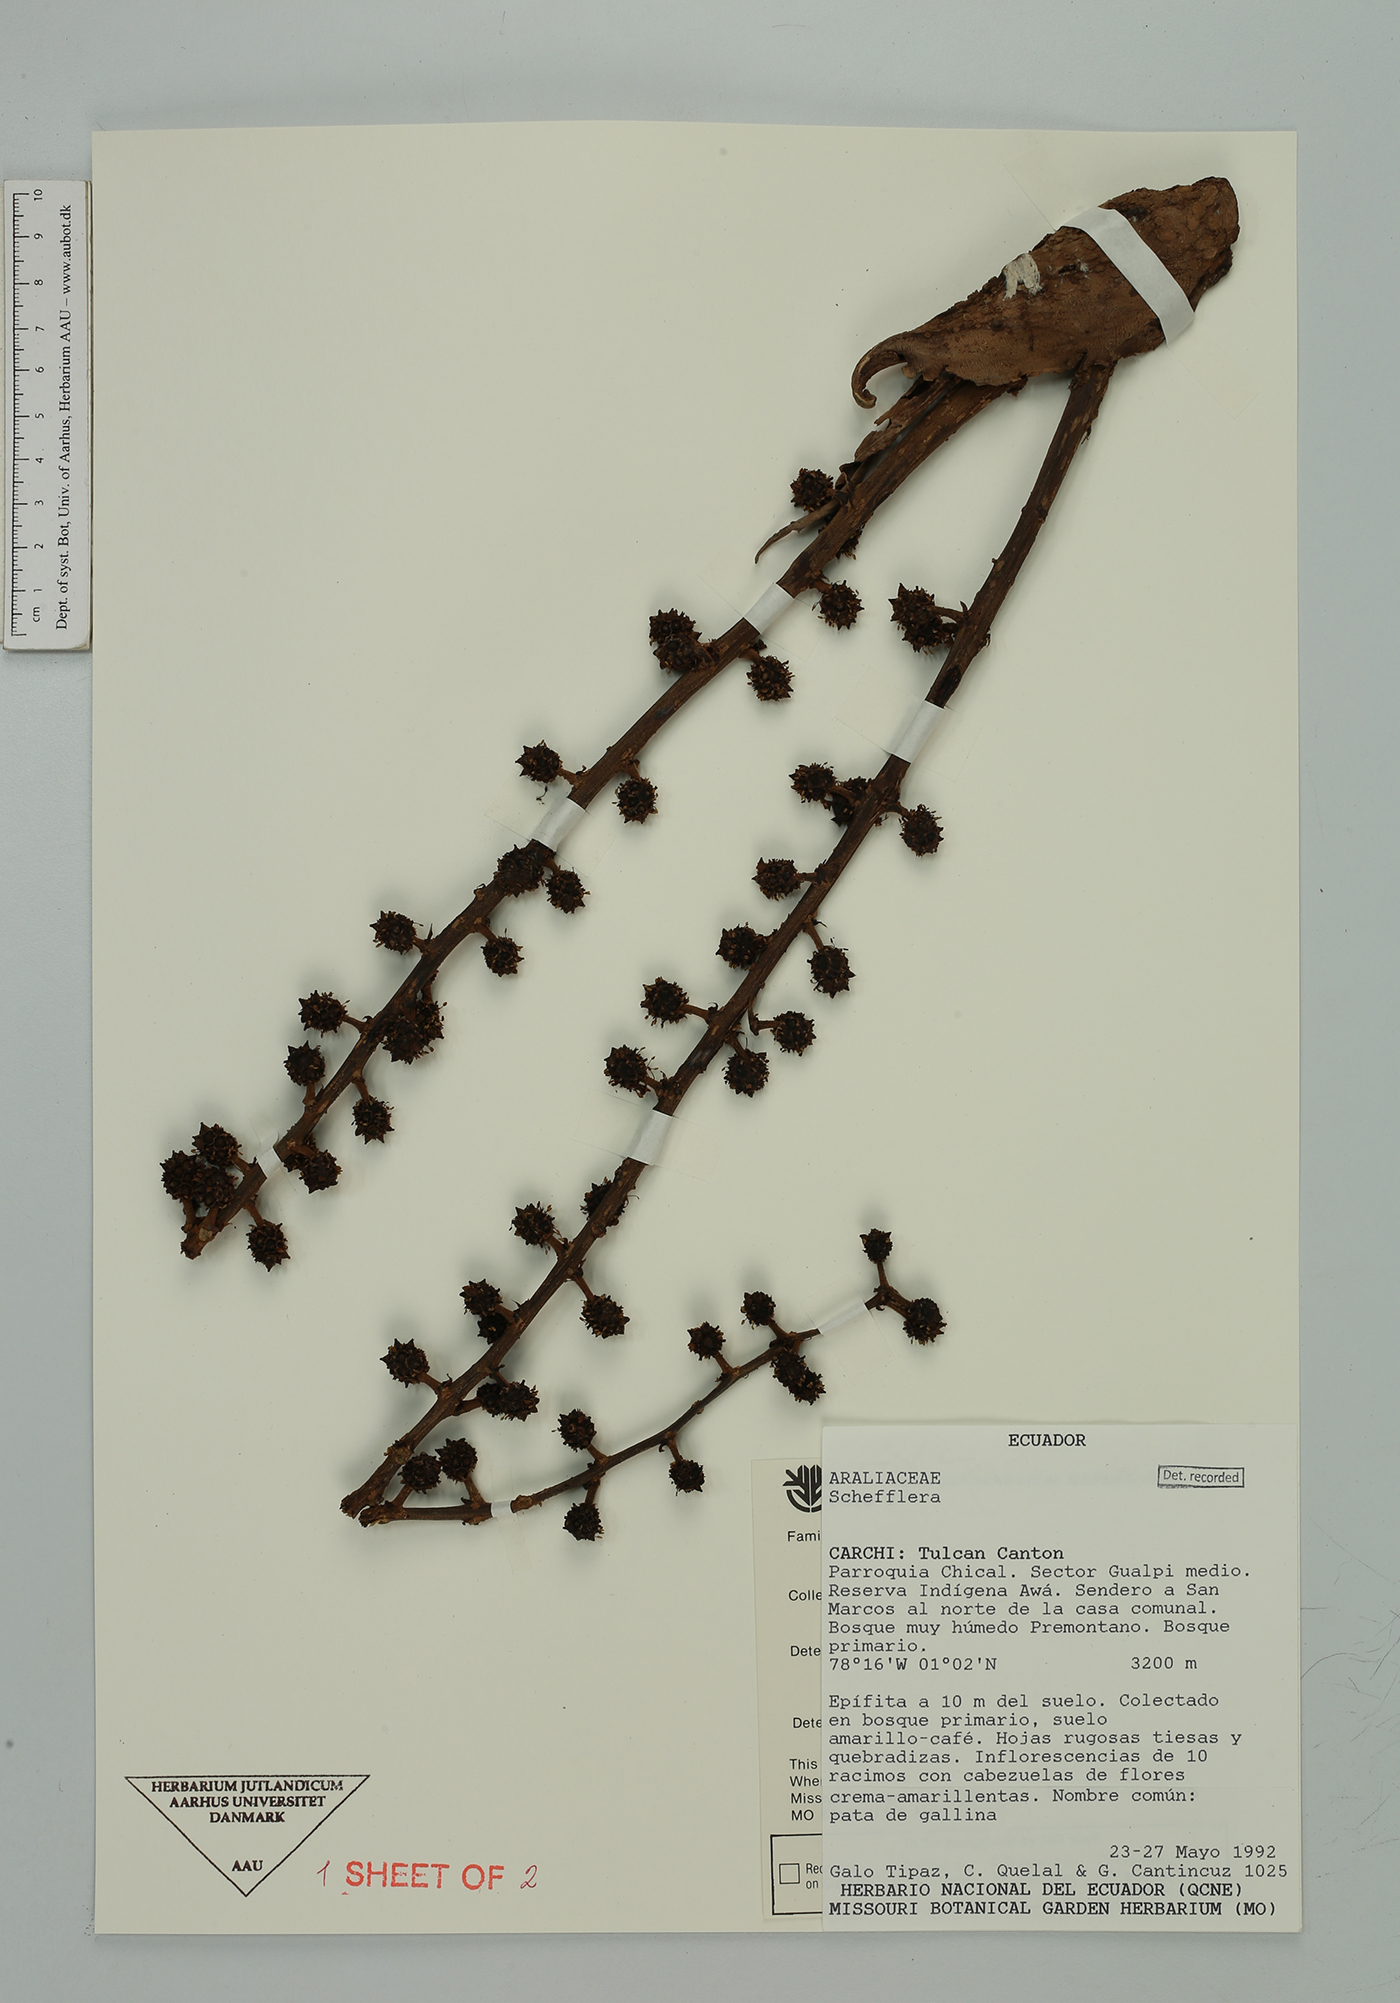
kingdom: Plantae
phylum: Tracheophyta
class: Magnoliopsida
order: Apiales
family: Araliaceae
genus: Sciodaphyllum
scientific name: Sciodaphyllum awa
